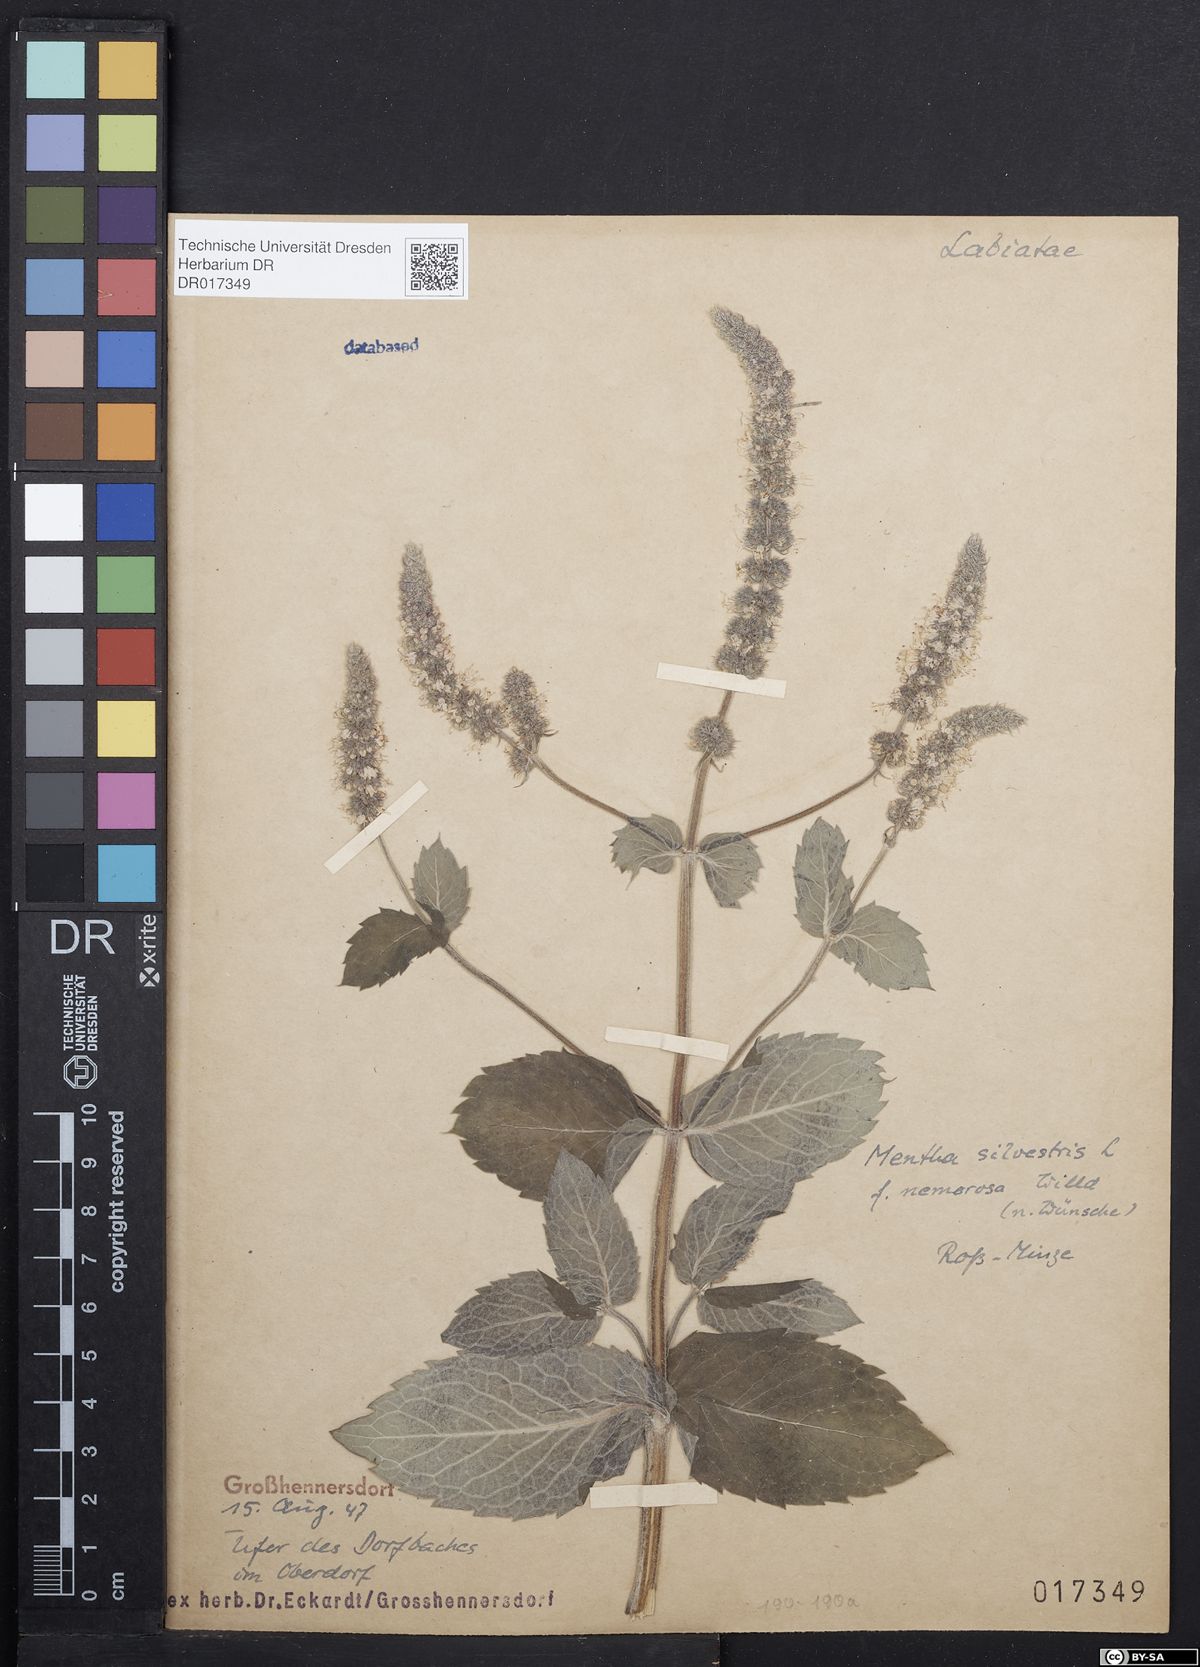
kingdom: Plantae
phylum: Tracheophyta
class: Magnoliopsida
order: Lamiales
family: Lamiaceae
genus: Mentha
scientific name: Mentha longifolia
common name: Horse mint
